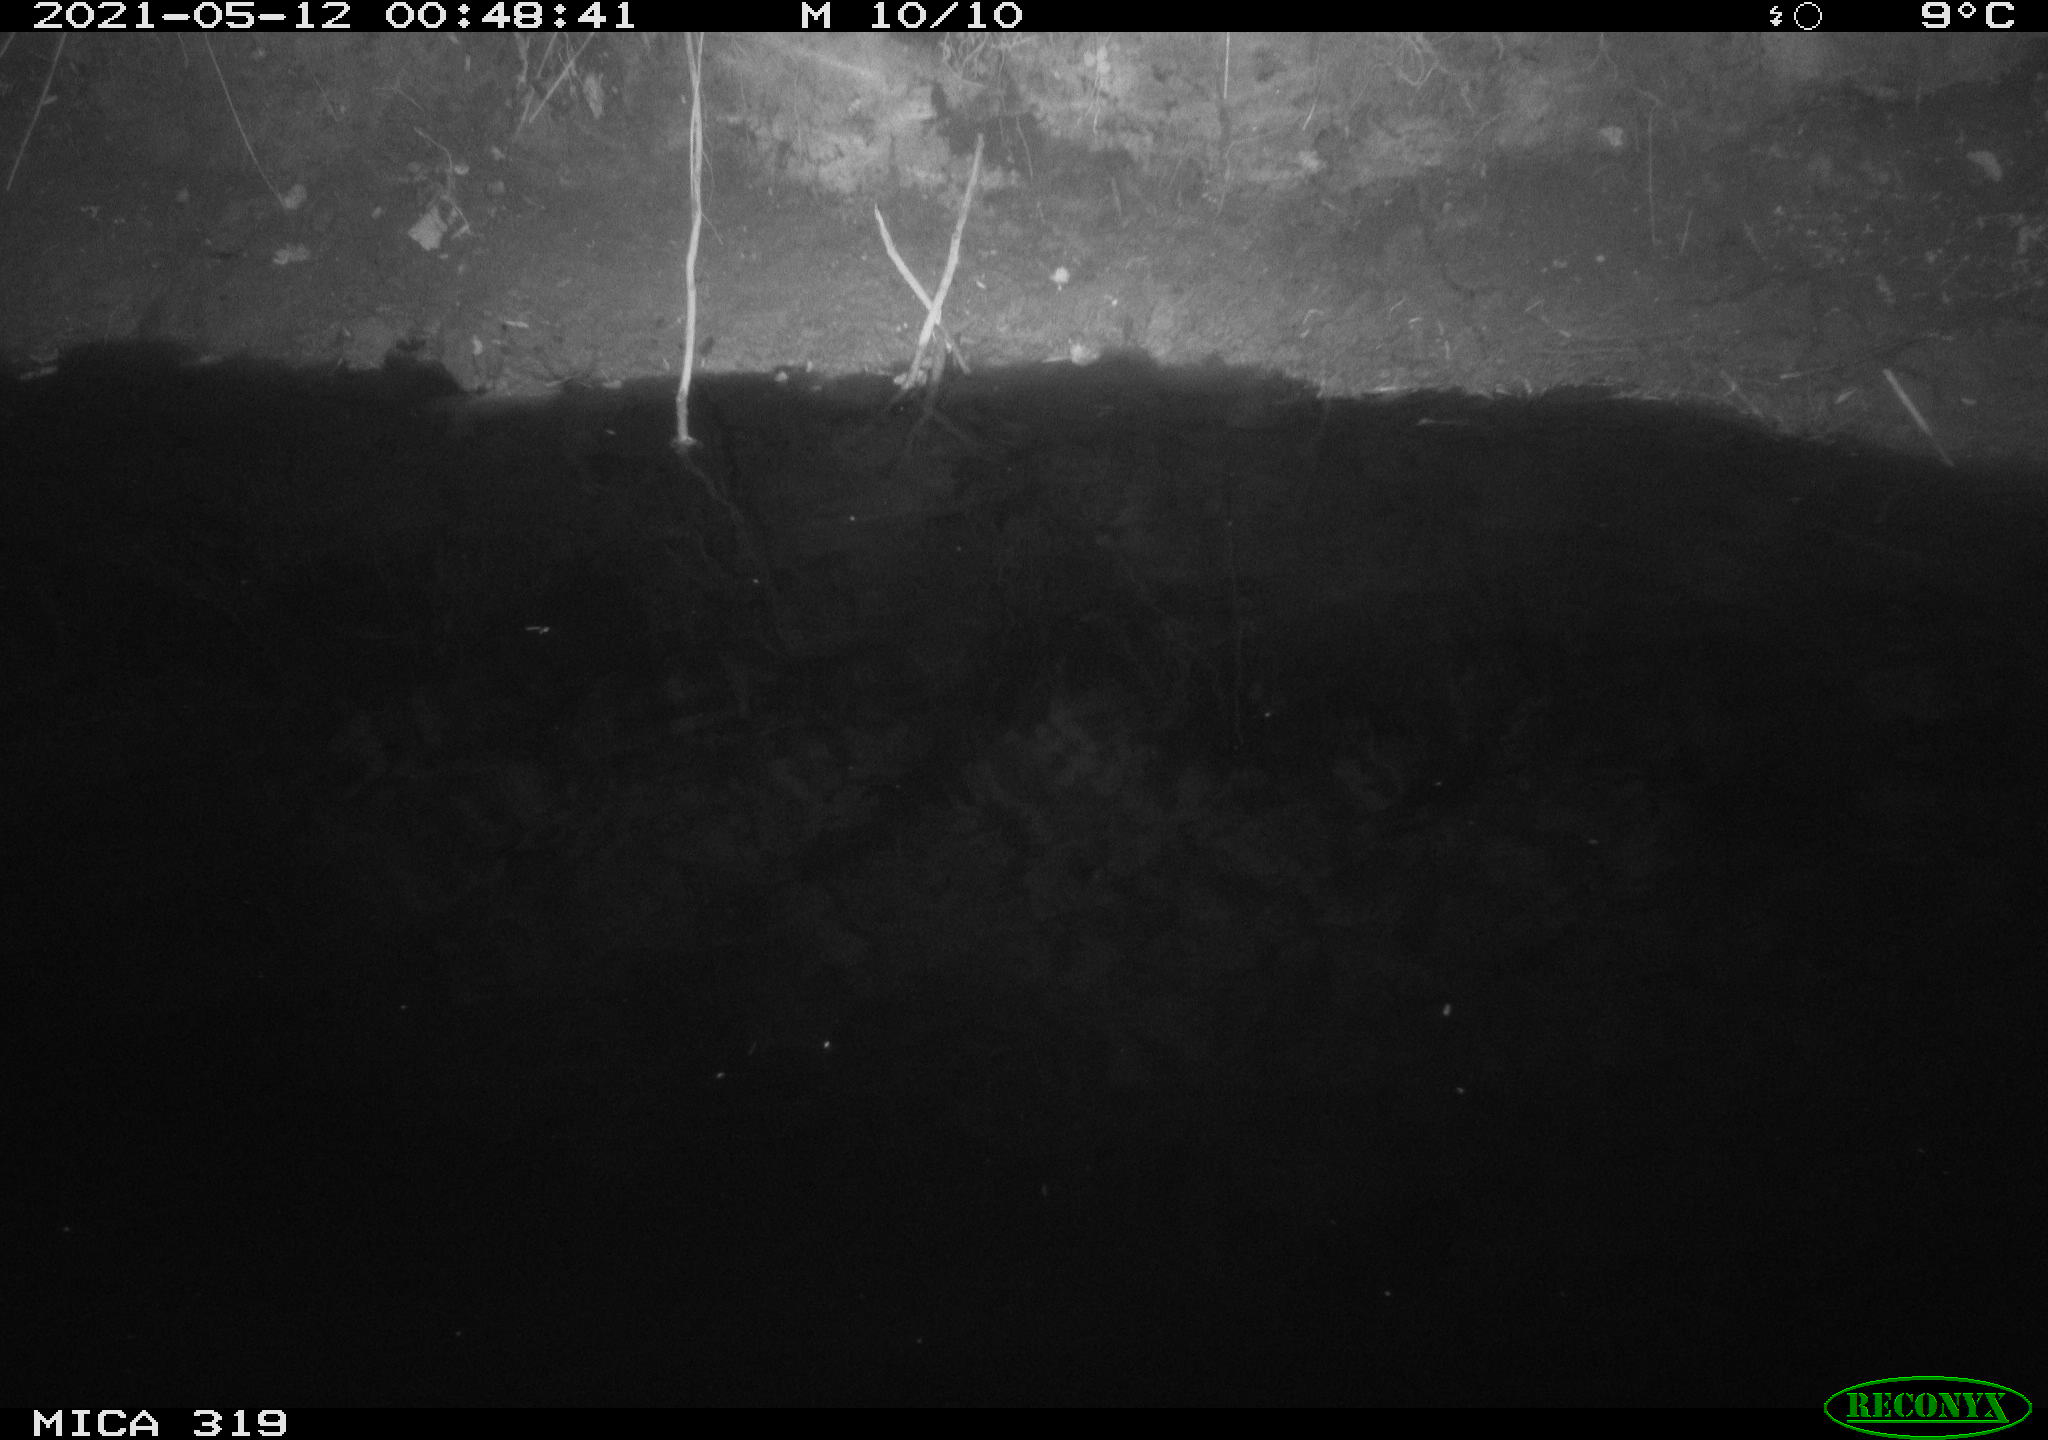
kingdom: Animalia
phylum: Chordata
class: Aves
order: Anseriformes
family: Anatidae
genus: Anas
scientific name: Anas platyrhynchos
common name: Mallard
